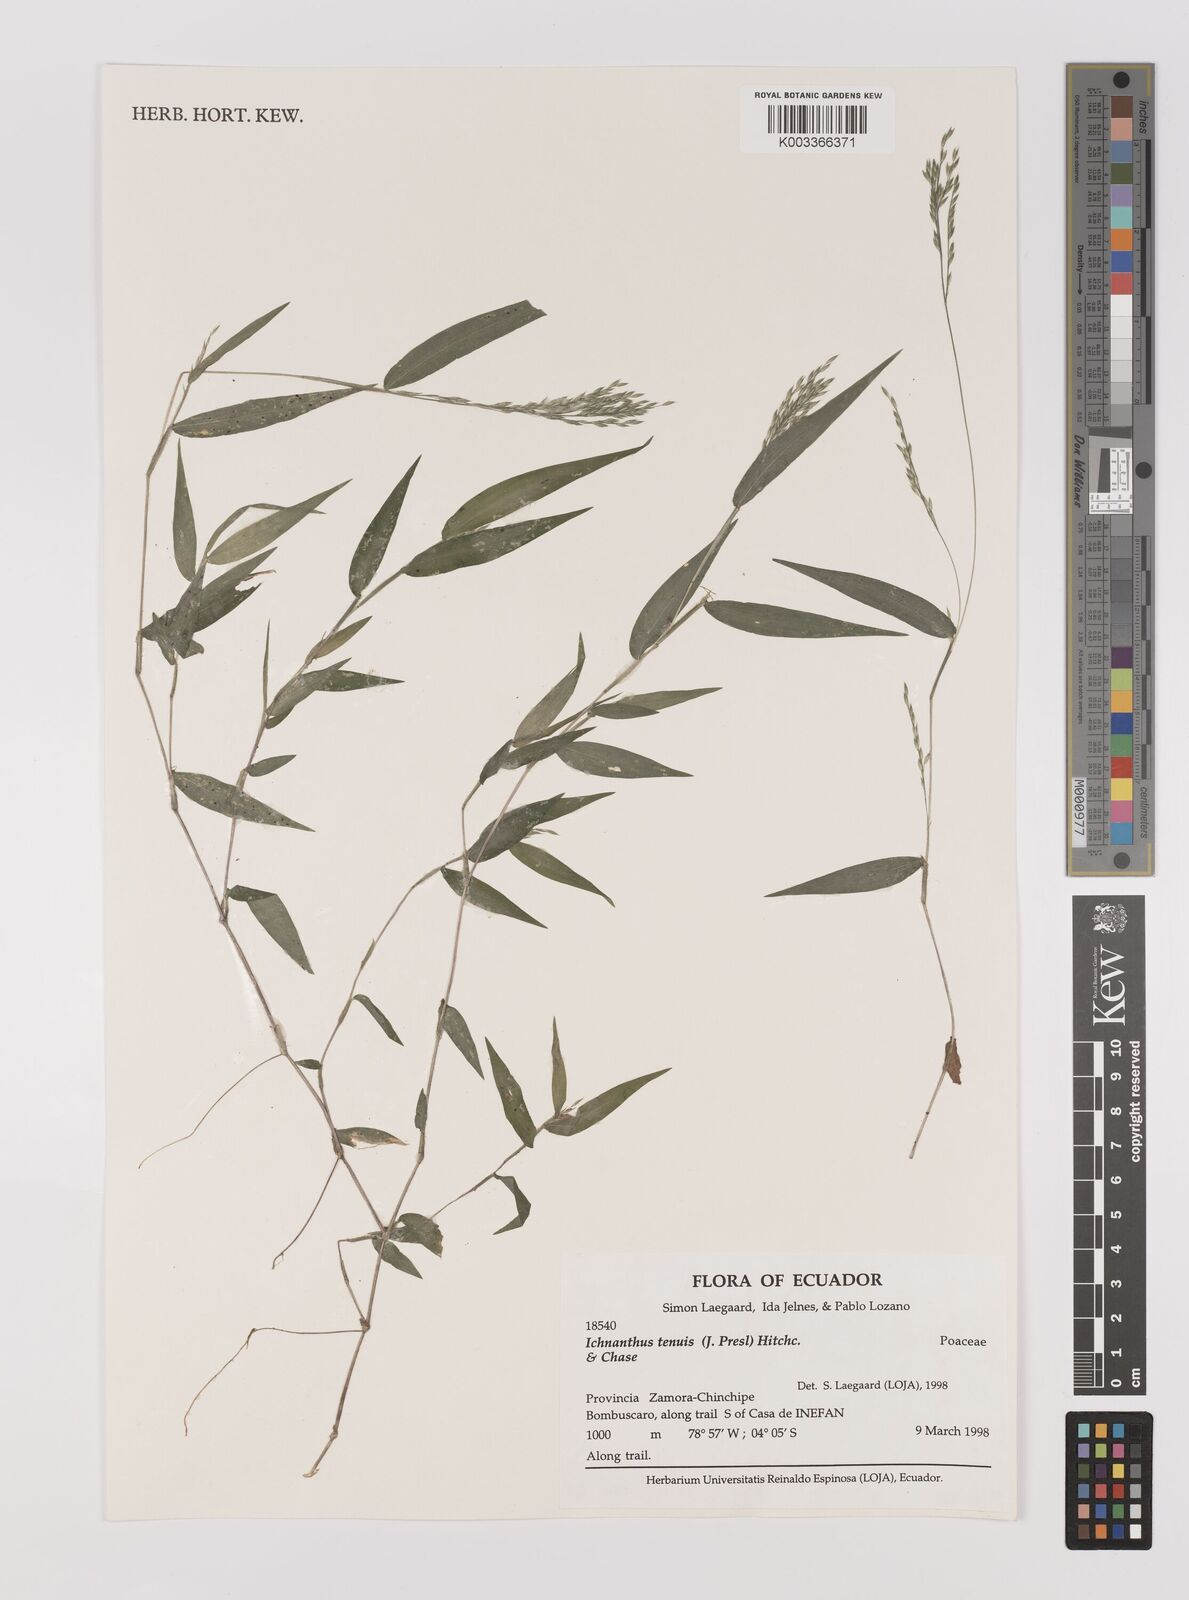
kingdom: Plantae
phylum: Tracheophyta
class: Liliopsida
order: Poales
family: Poaceae
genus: Ichnanthus
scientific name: Ichnanthus tenuis
